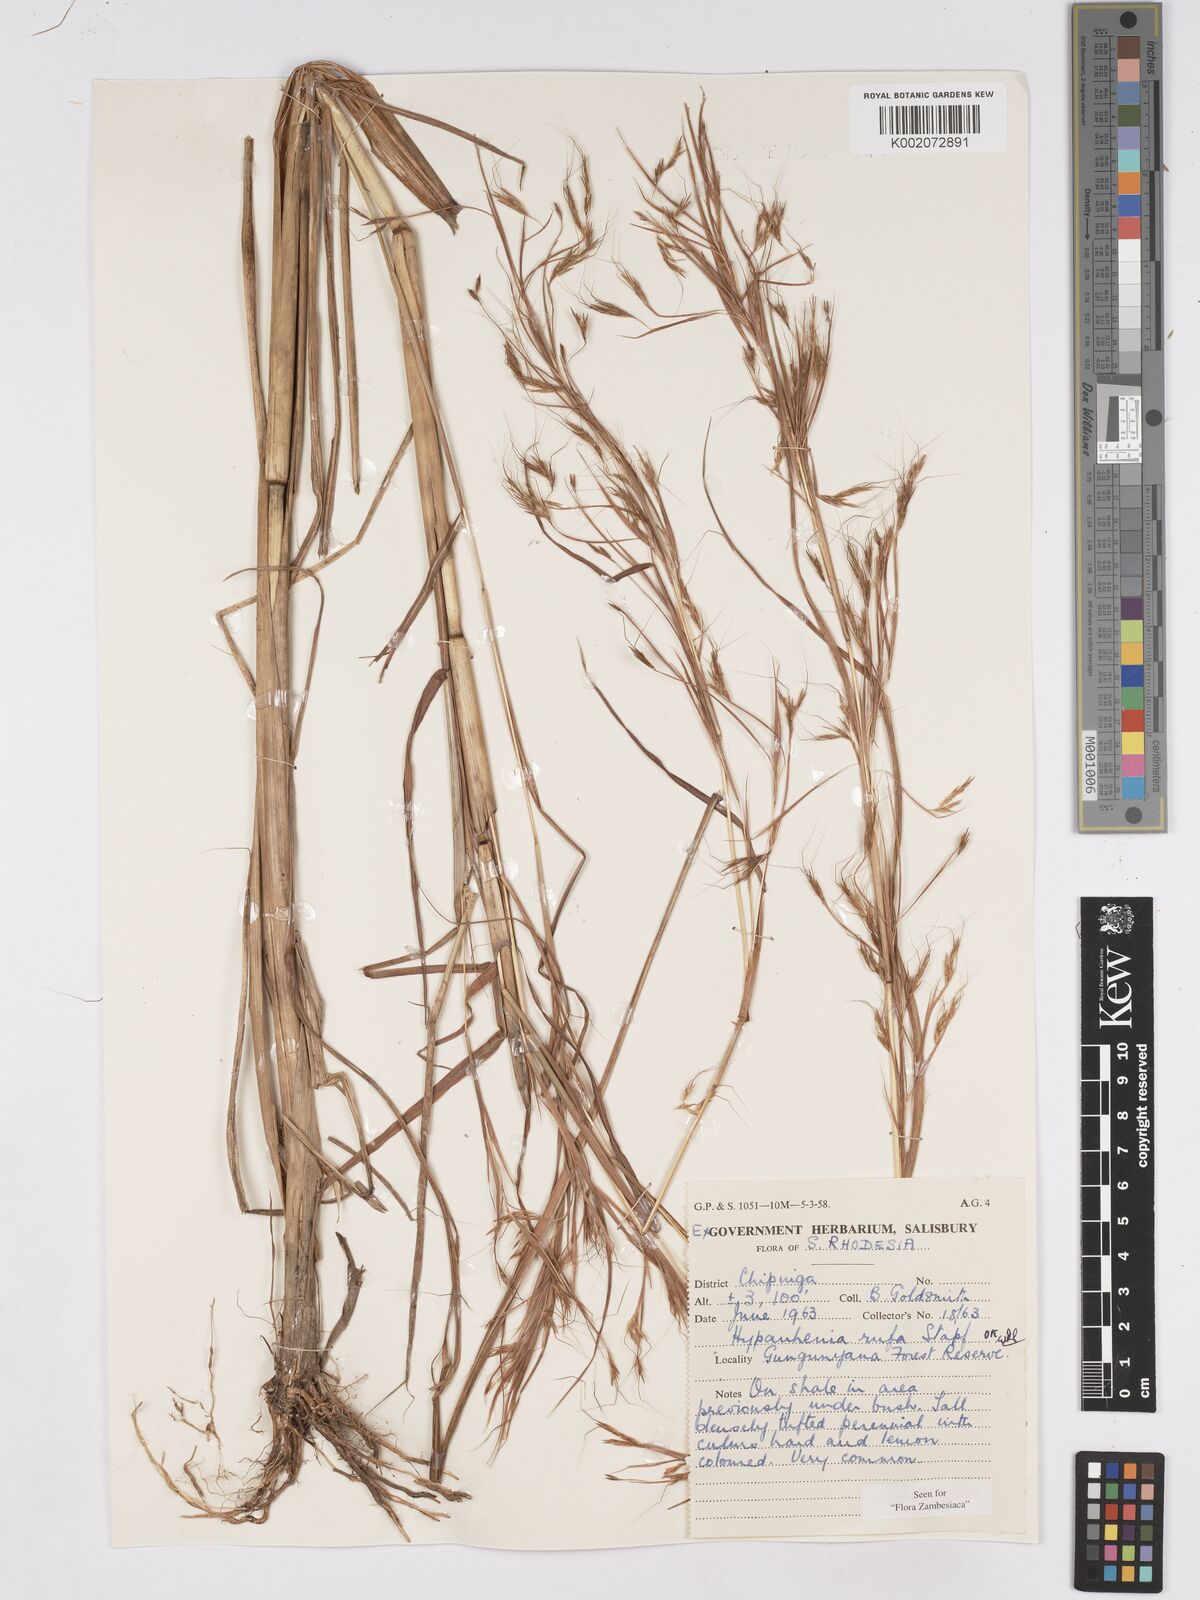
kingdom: Plantae
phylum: Tracheophyta
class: Liliopsida
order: Poales
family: Poaceae
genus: Hyparrhenia
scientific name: Hyparrhenia rufa
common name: Jaraguagrass
